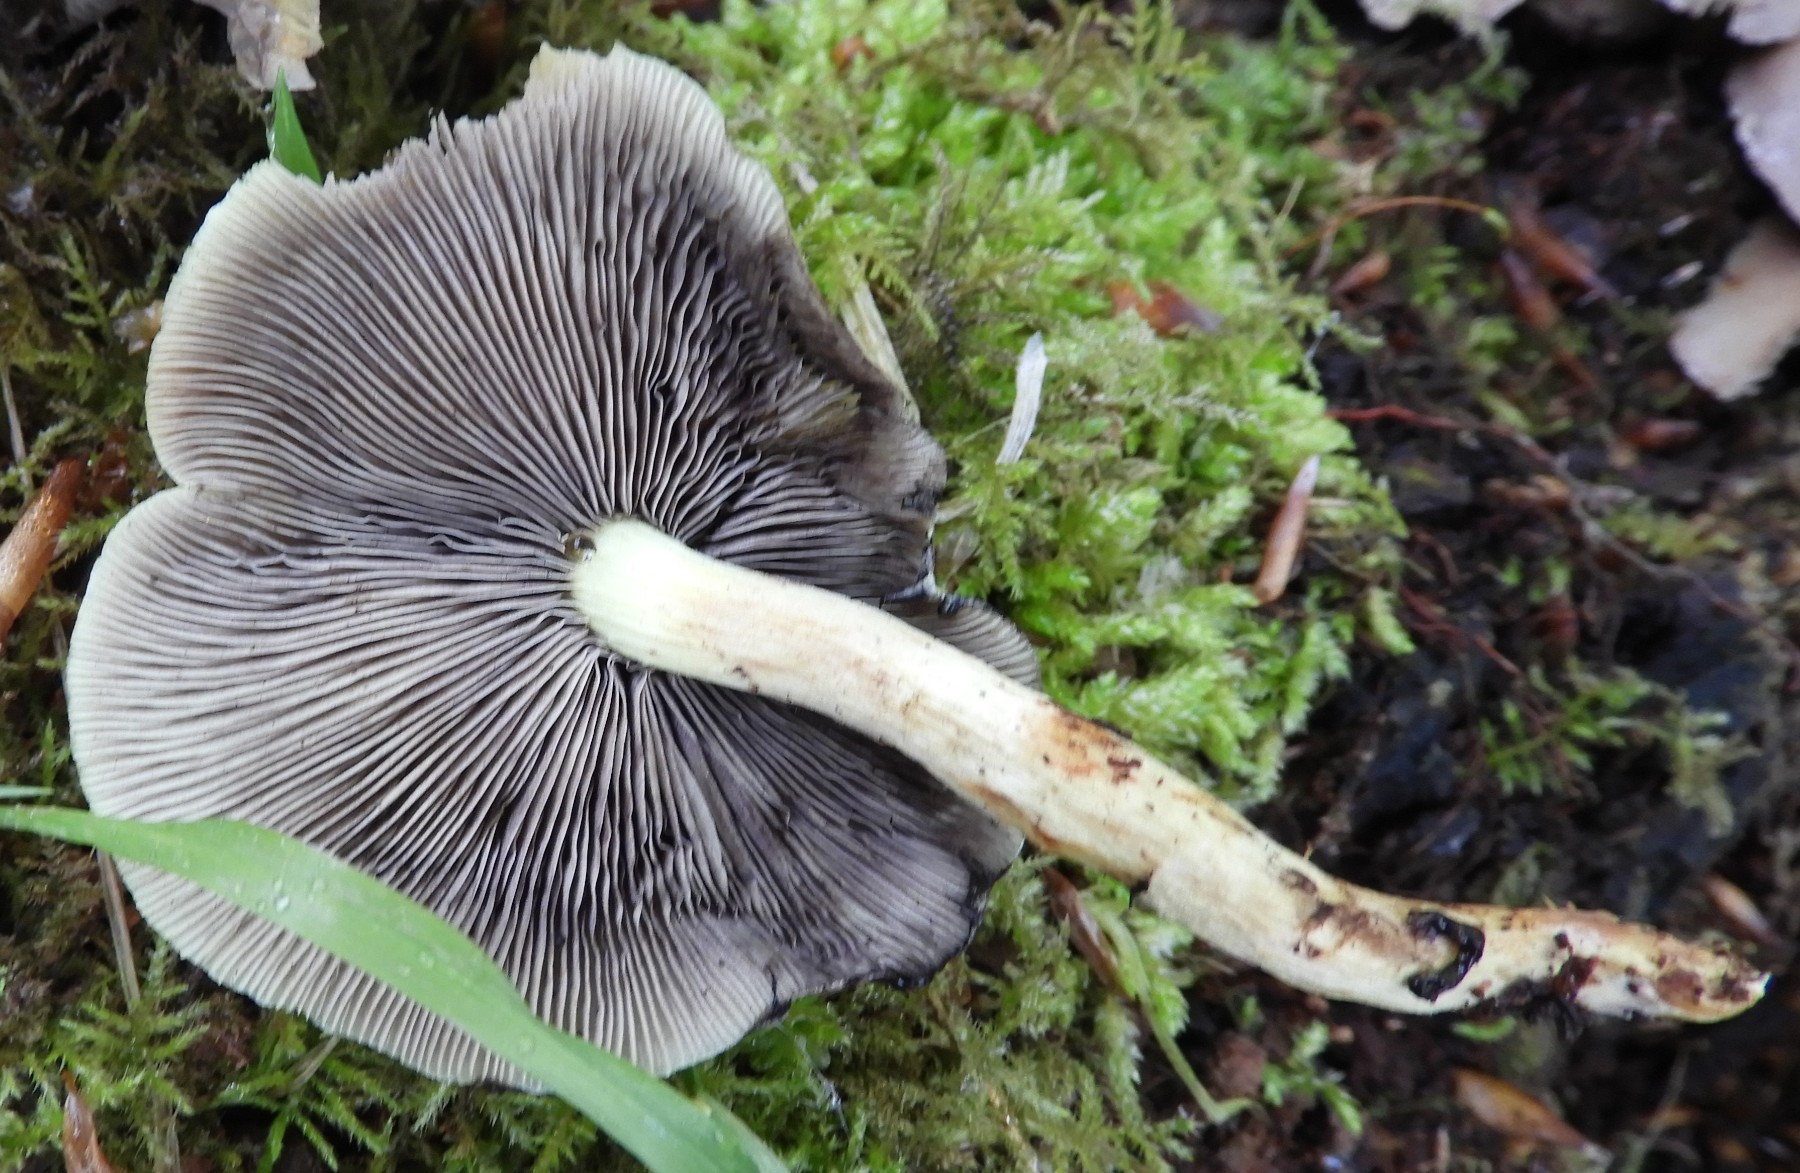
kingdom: Fungi
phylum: Basidiomycota
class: Agaricomycetes
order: Agaricales
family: Strophariaceae
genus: Hypholoma
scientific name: Hypholoma fasciculare
